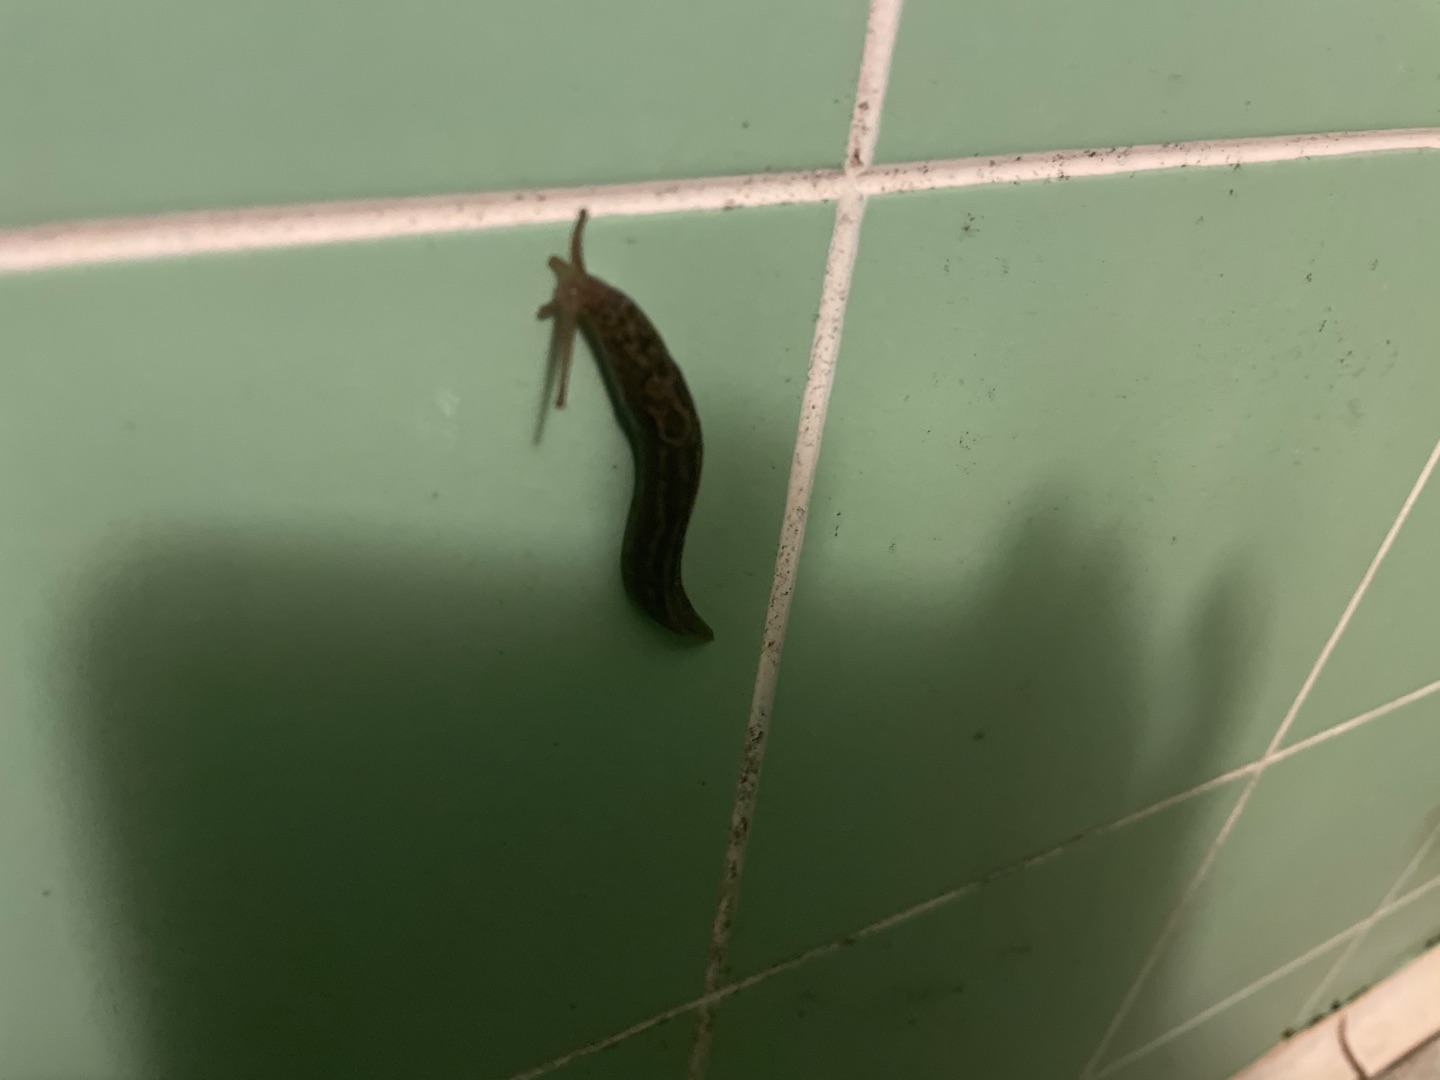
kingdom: Animalia
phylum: Mollusca
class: Gastropoda
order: Stylommatophora
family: Limacidae
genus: Limax
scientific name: Limax maximus
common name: Pantersnegl
